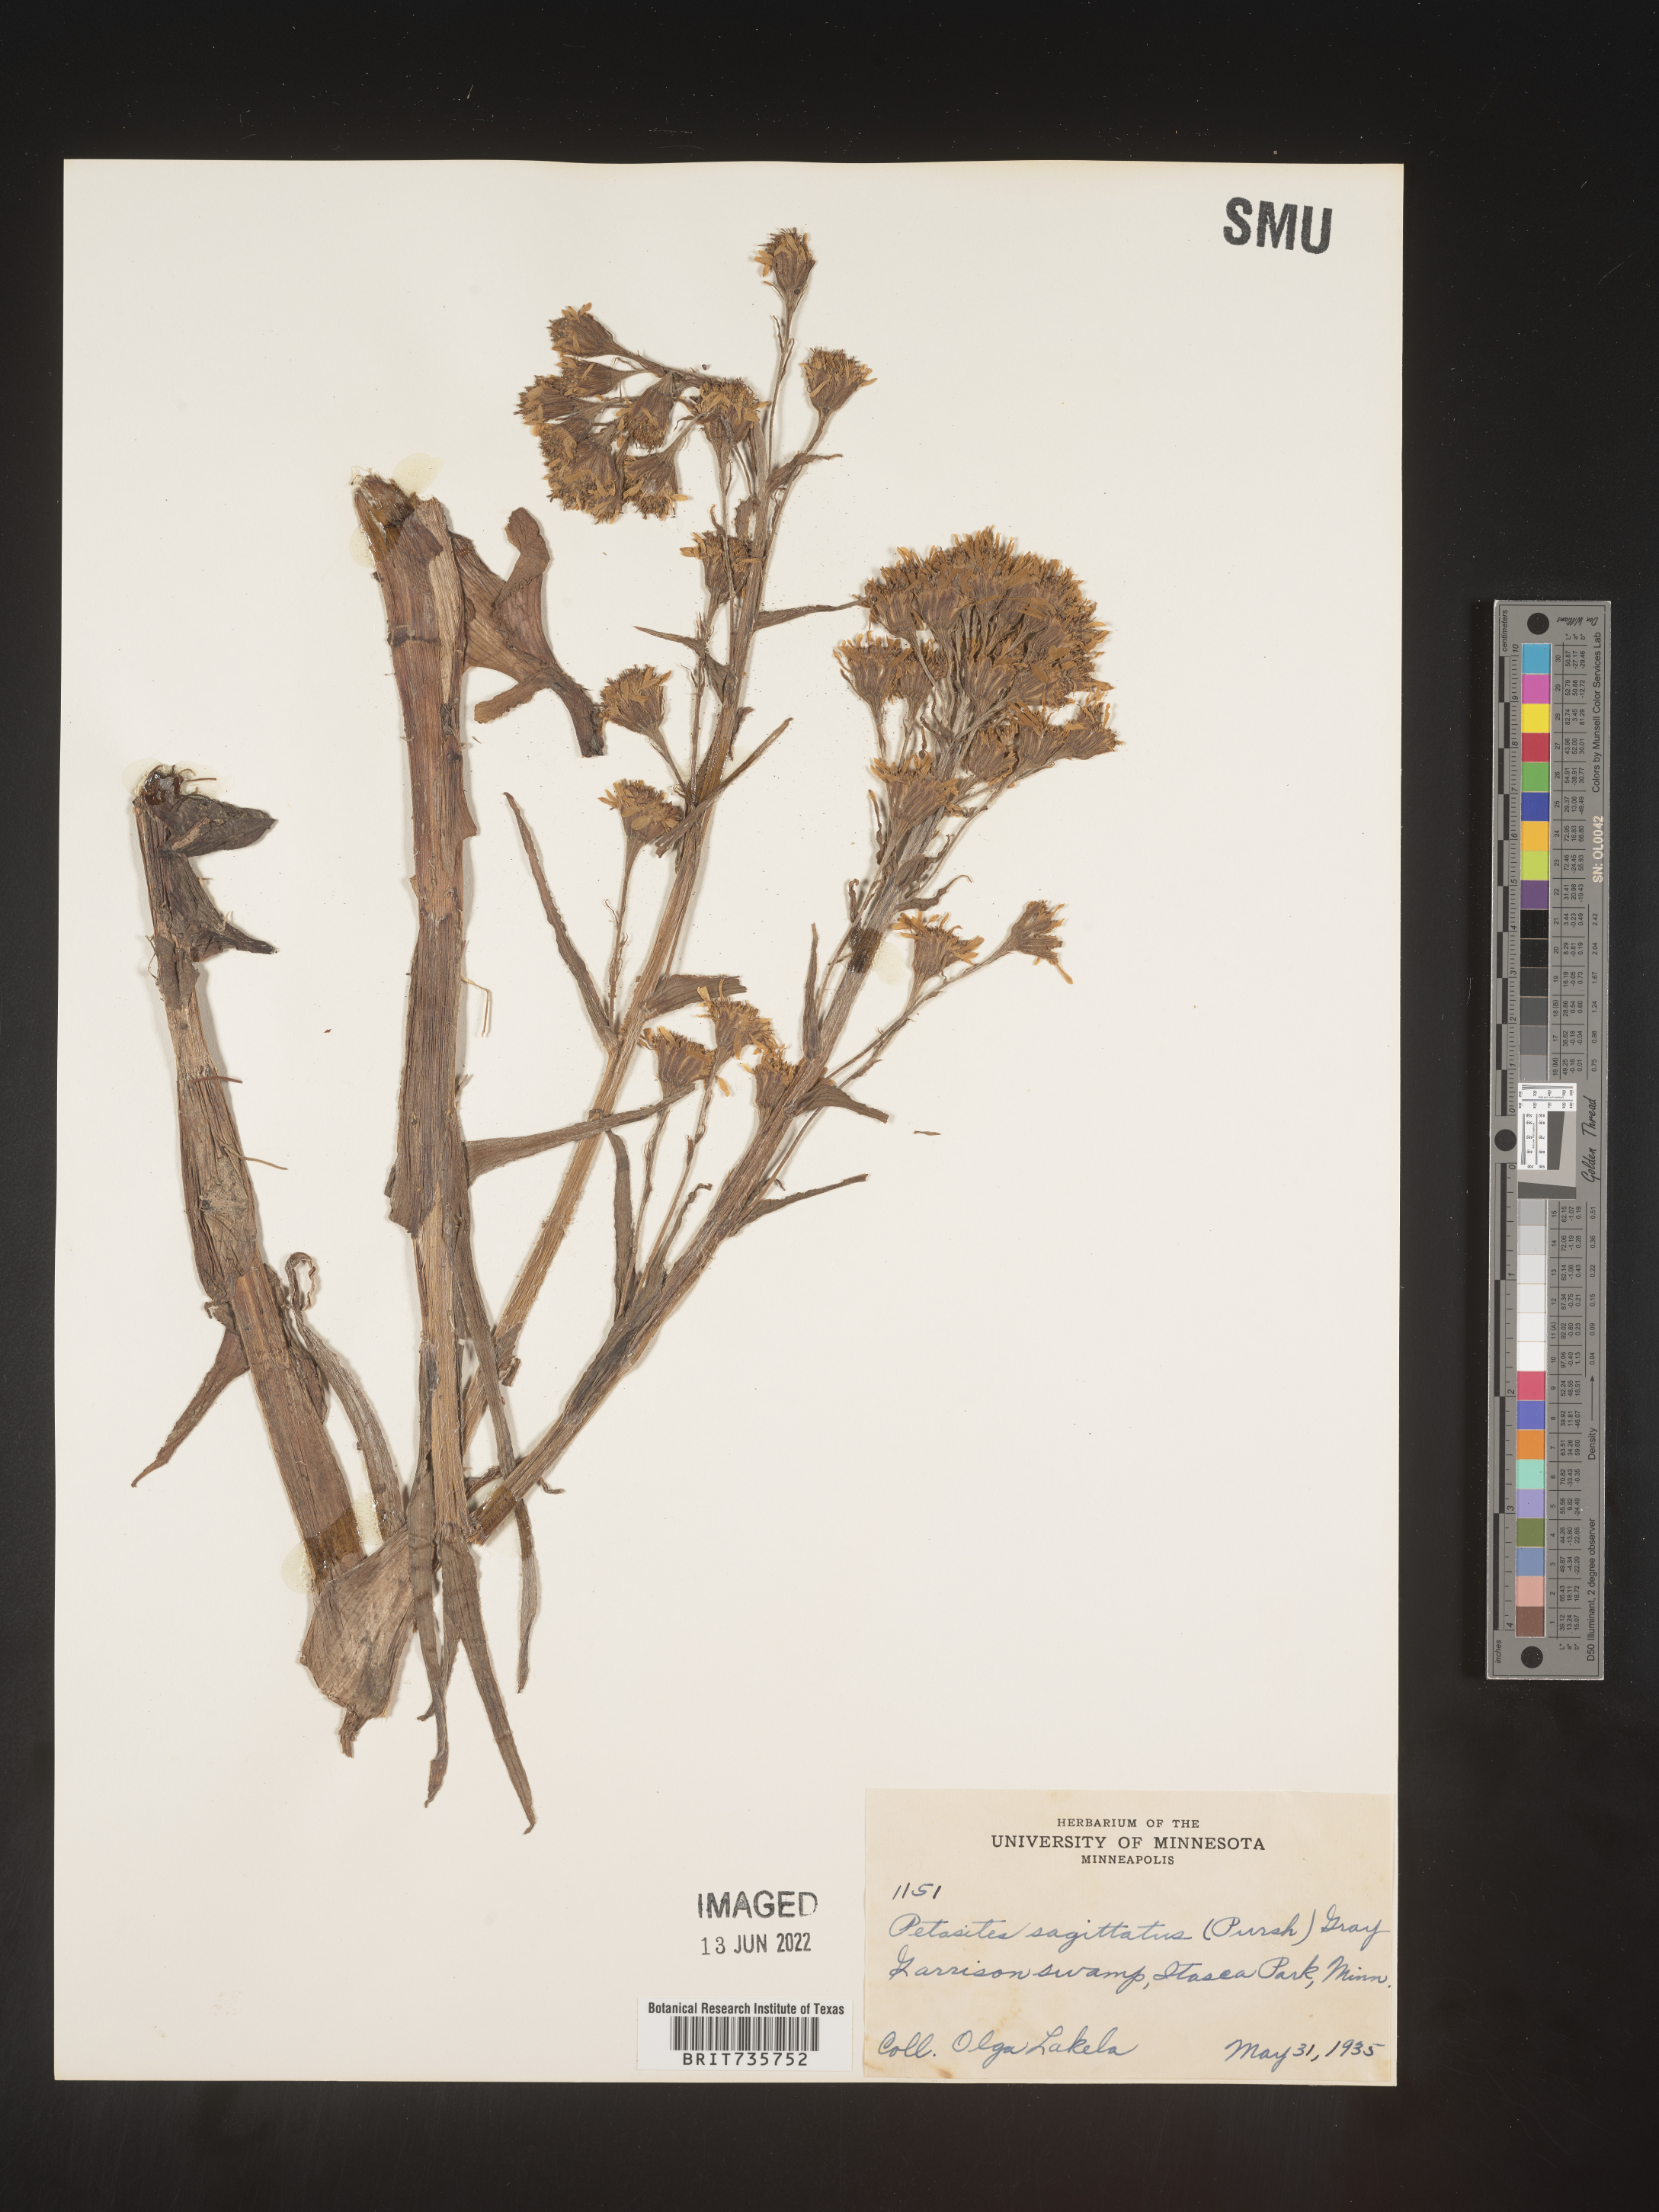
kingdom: Plantae
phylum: Tracheophyta
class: Magnoliopsida
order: Asterales
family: Asteraceae
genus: Petasites
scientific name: Petasites frigidus
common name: Arctic butterbur
